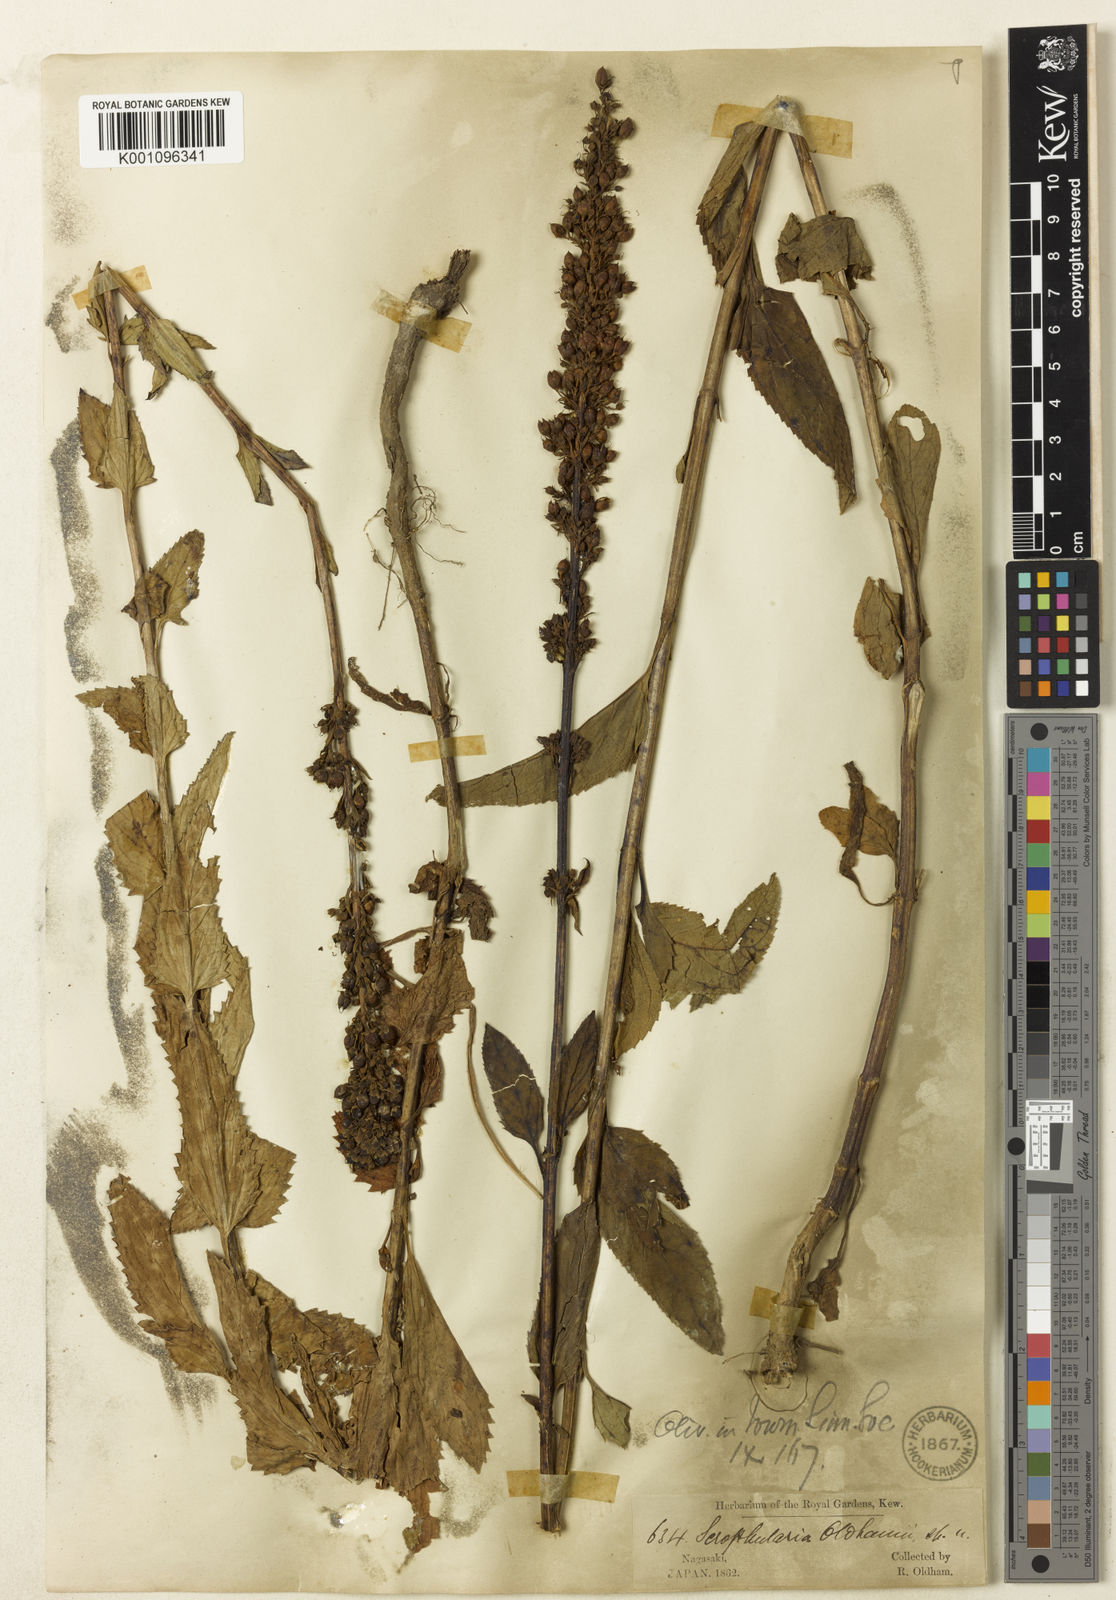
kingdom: Plantae
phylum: Tracheophyta
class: Magnoliopsida
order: Lamiales
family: Scrophulariaceae
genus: Scrophularia
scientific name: Scrophularia buergeriana
